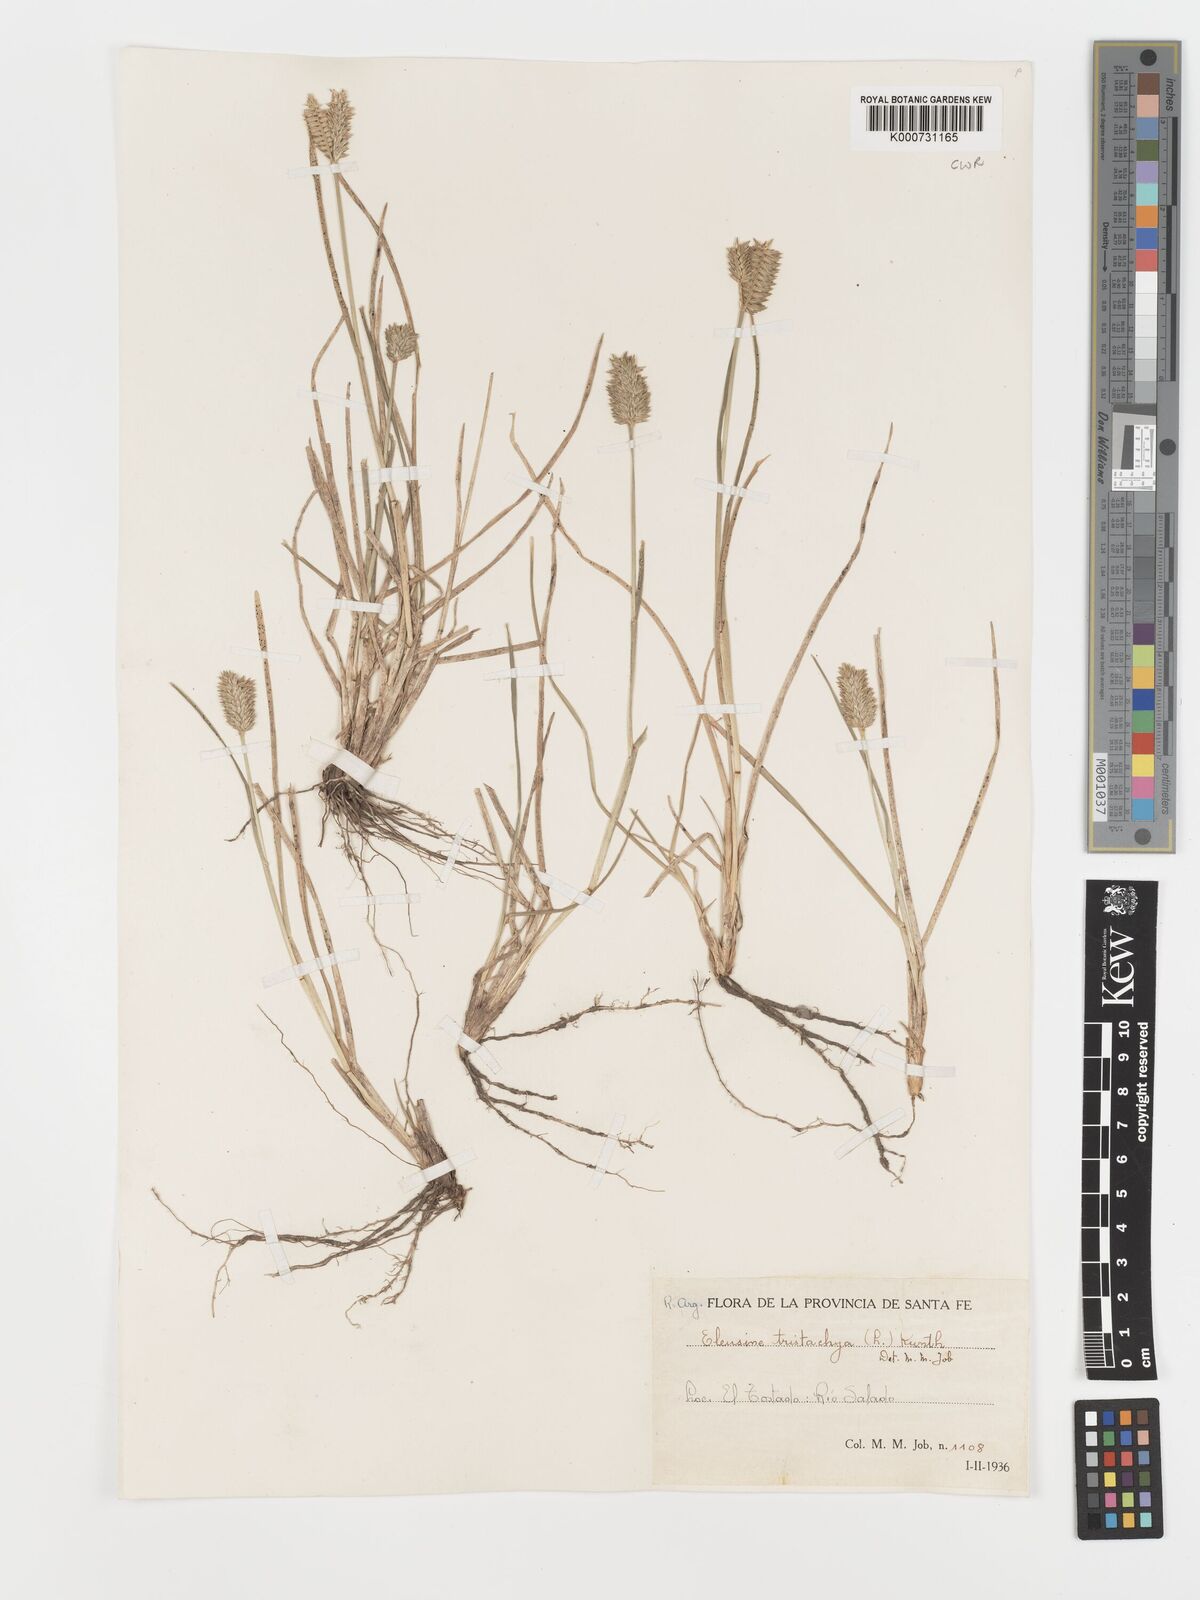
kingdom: Plantae
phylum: Tracheophyta
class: Liliopsida
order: Poales
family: Poaceae
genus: Eleusine
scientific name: Eleusine tristachya
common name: American yard-grass
